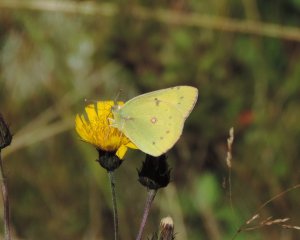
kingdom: Animalia
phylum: Arthropoda
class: Insecta
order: Lepidoptera
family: Pieridae
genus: Colias
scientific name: Colias philodice
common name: Clouded Sulphur
